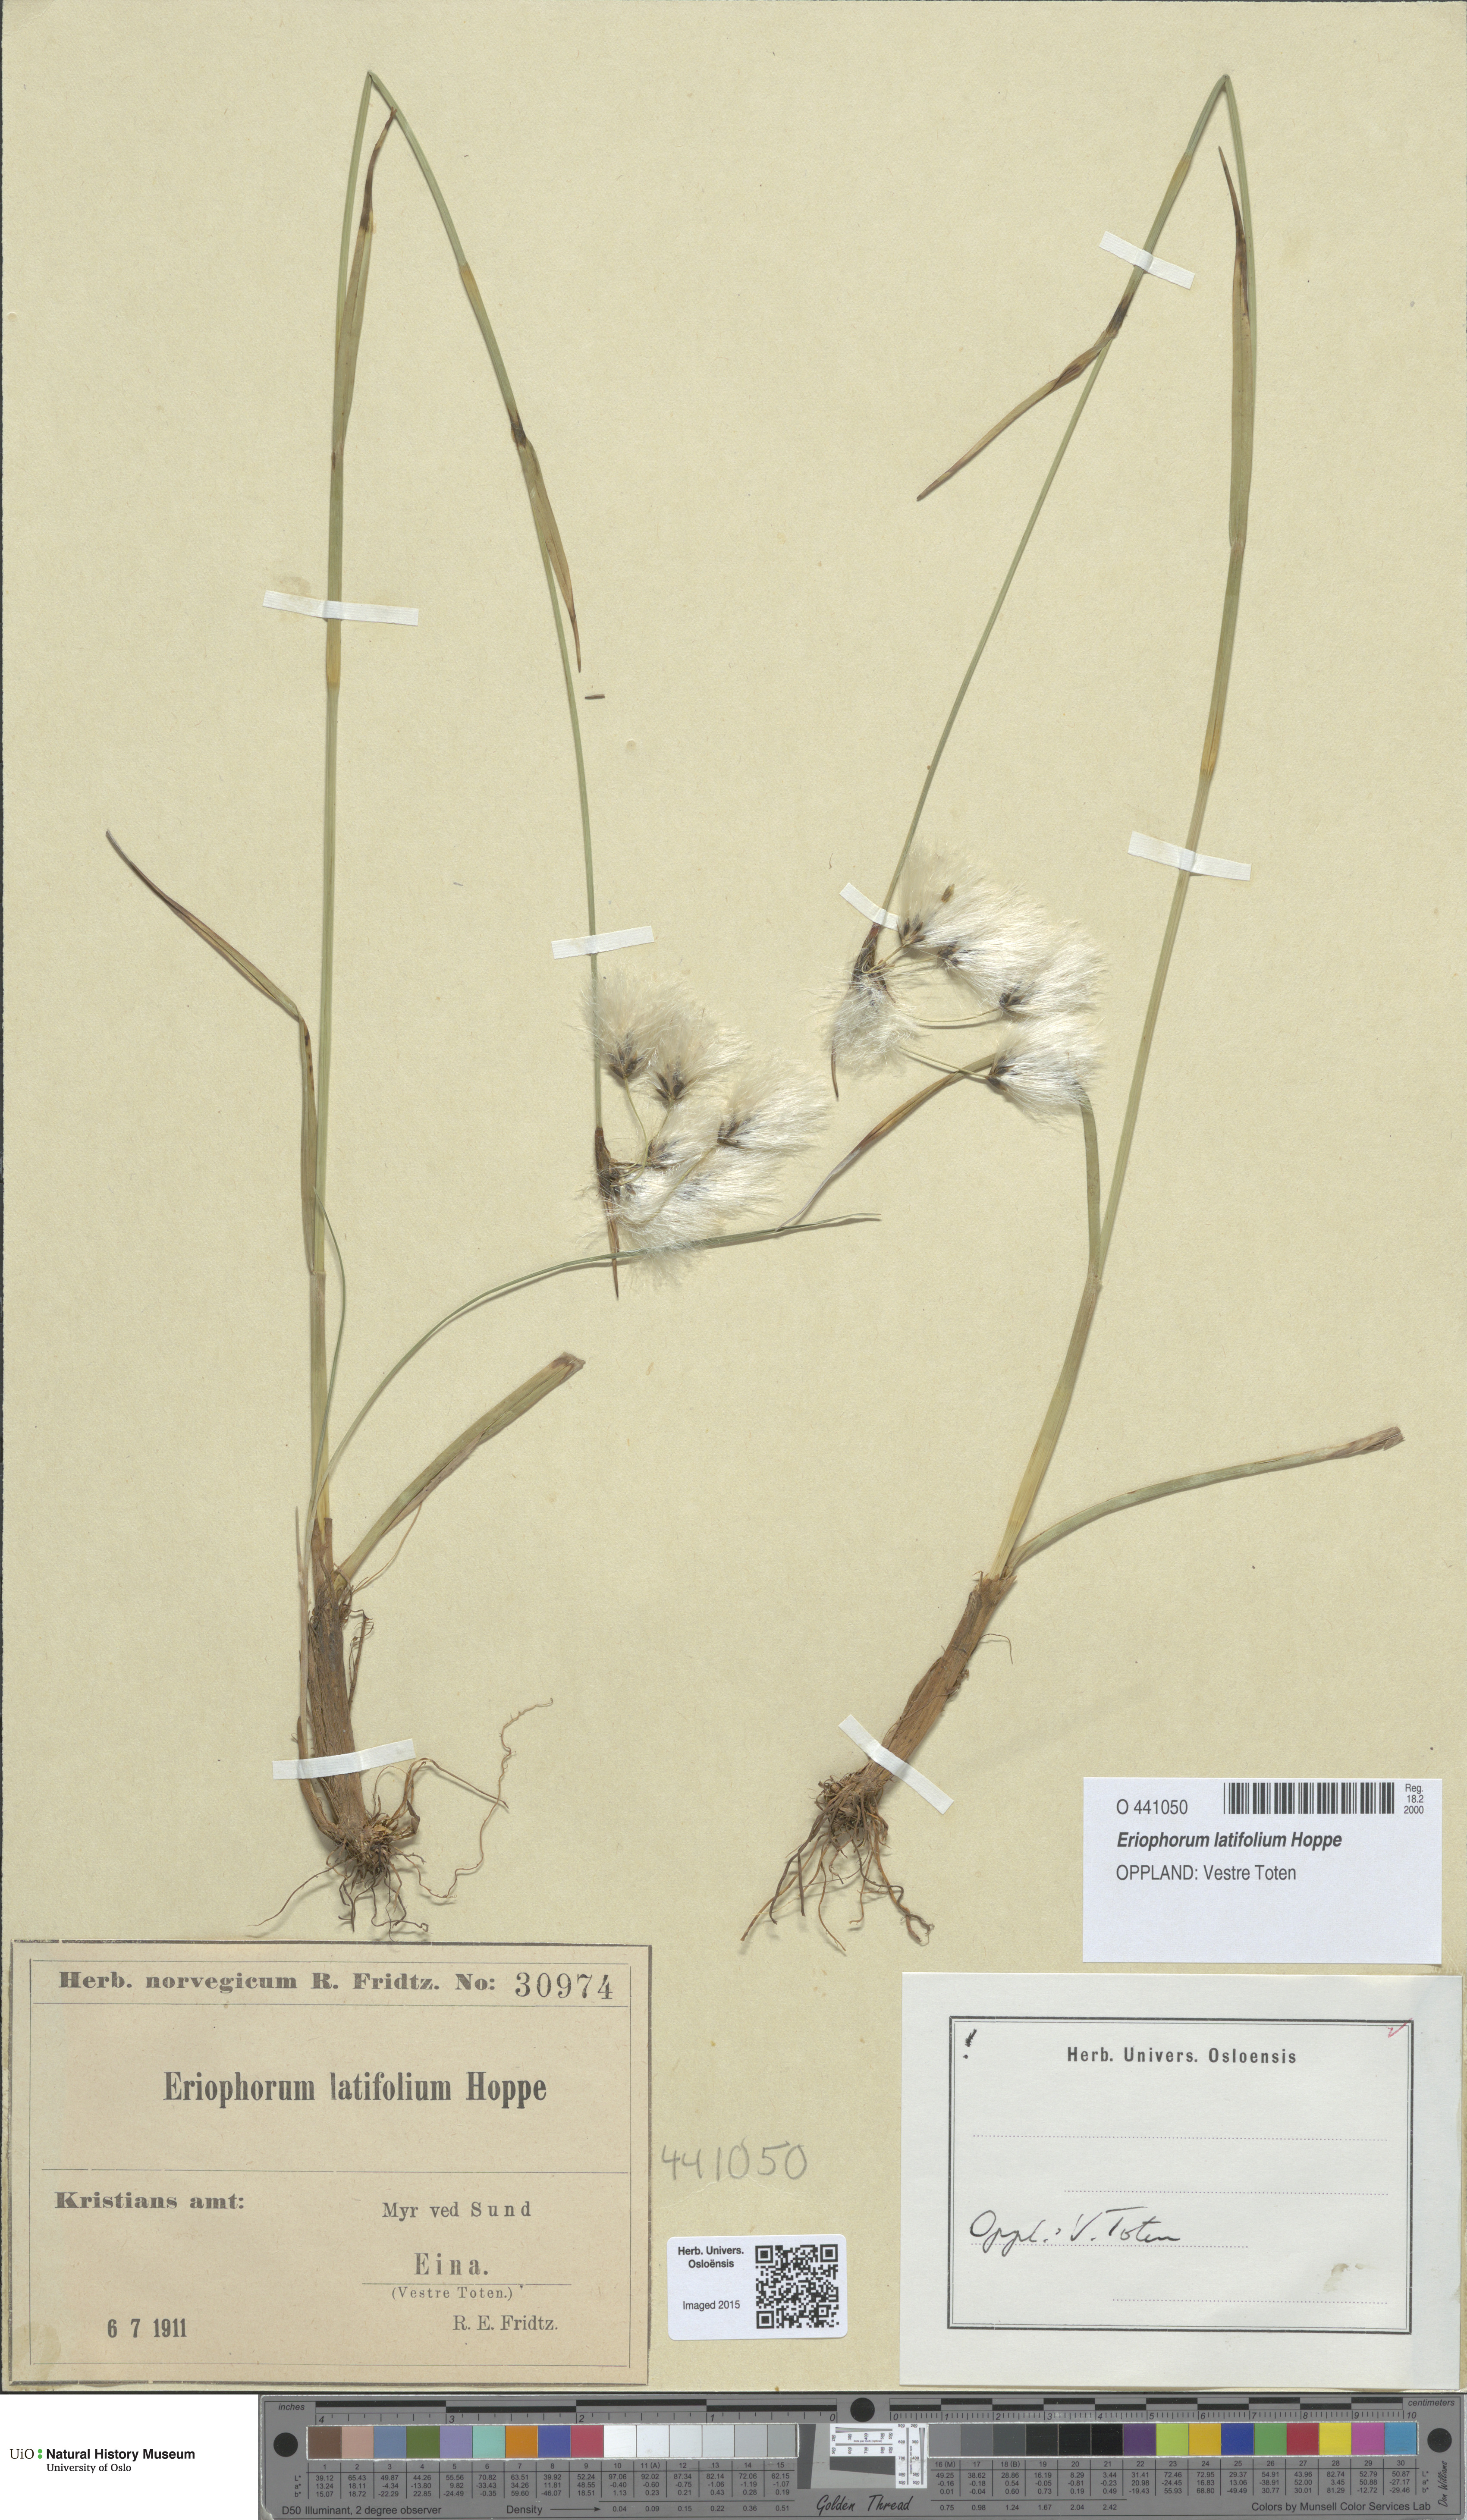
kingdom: Plantae
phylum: Tracheophyta
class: Liliopsida
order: Poales
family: Cyperaceae
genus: Eriophorum
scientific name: Eriophorum latifolium
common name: Broad-leaved cottongrass
